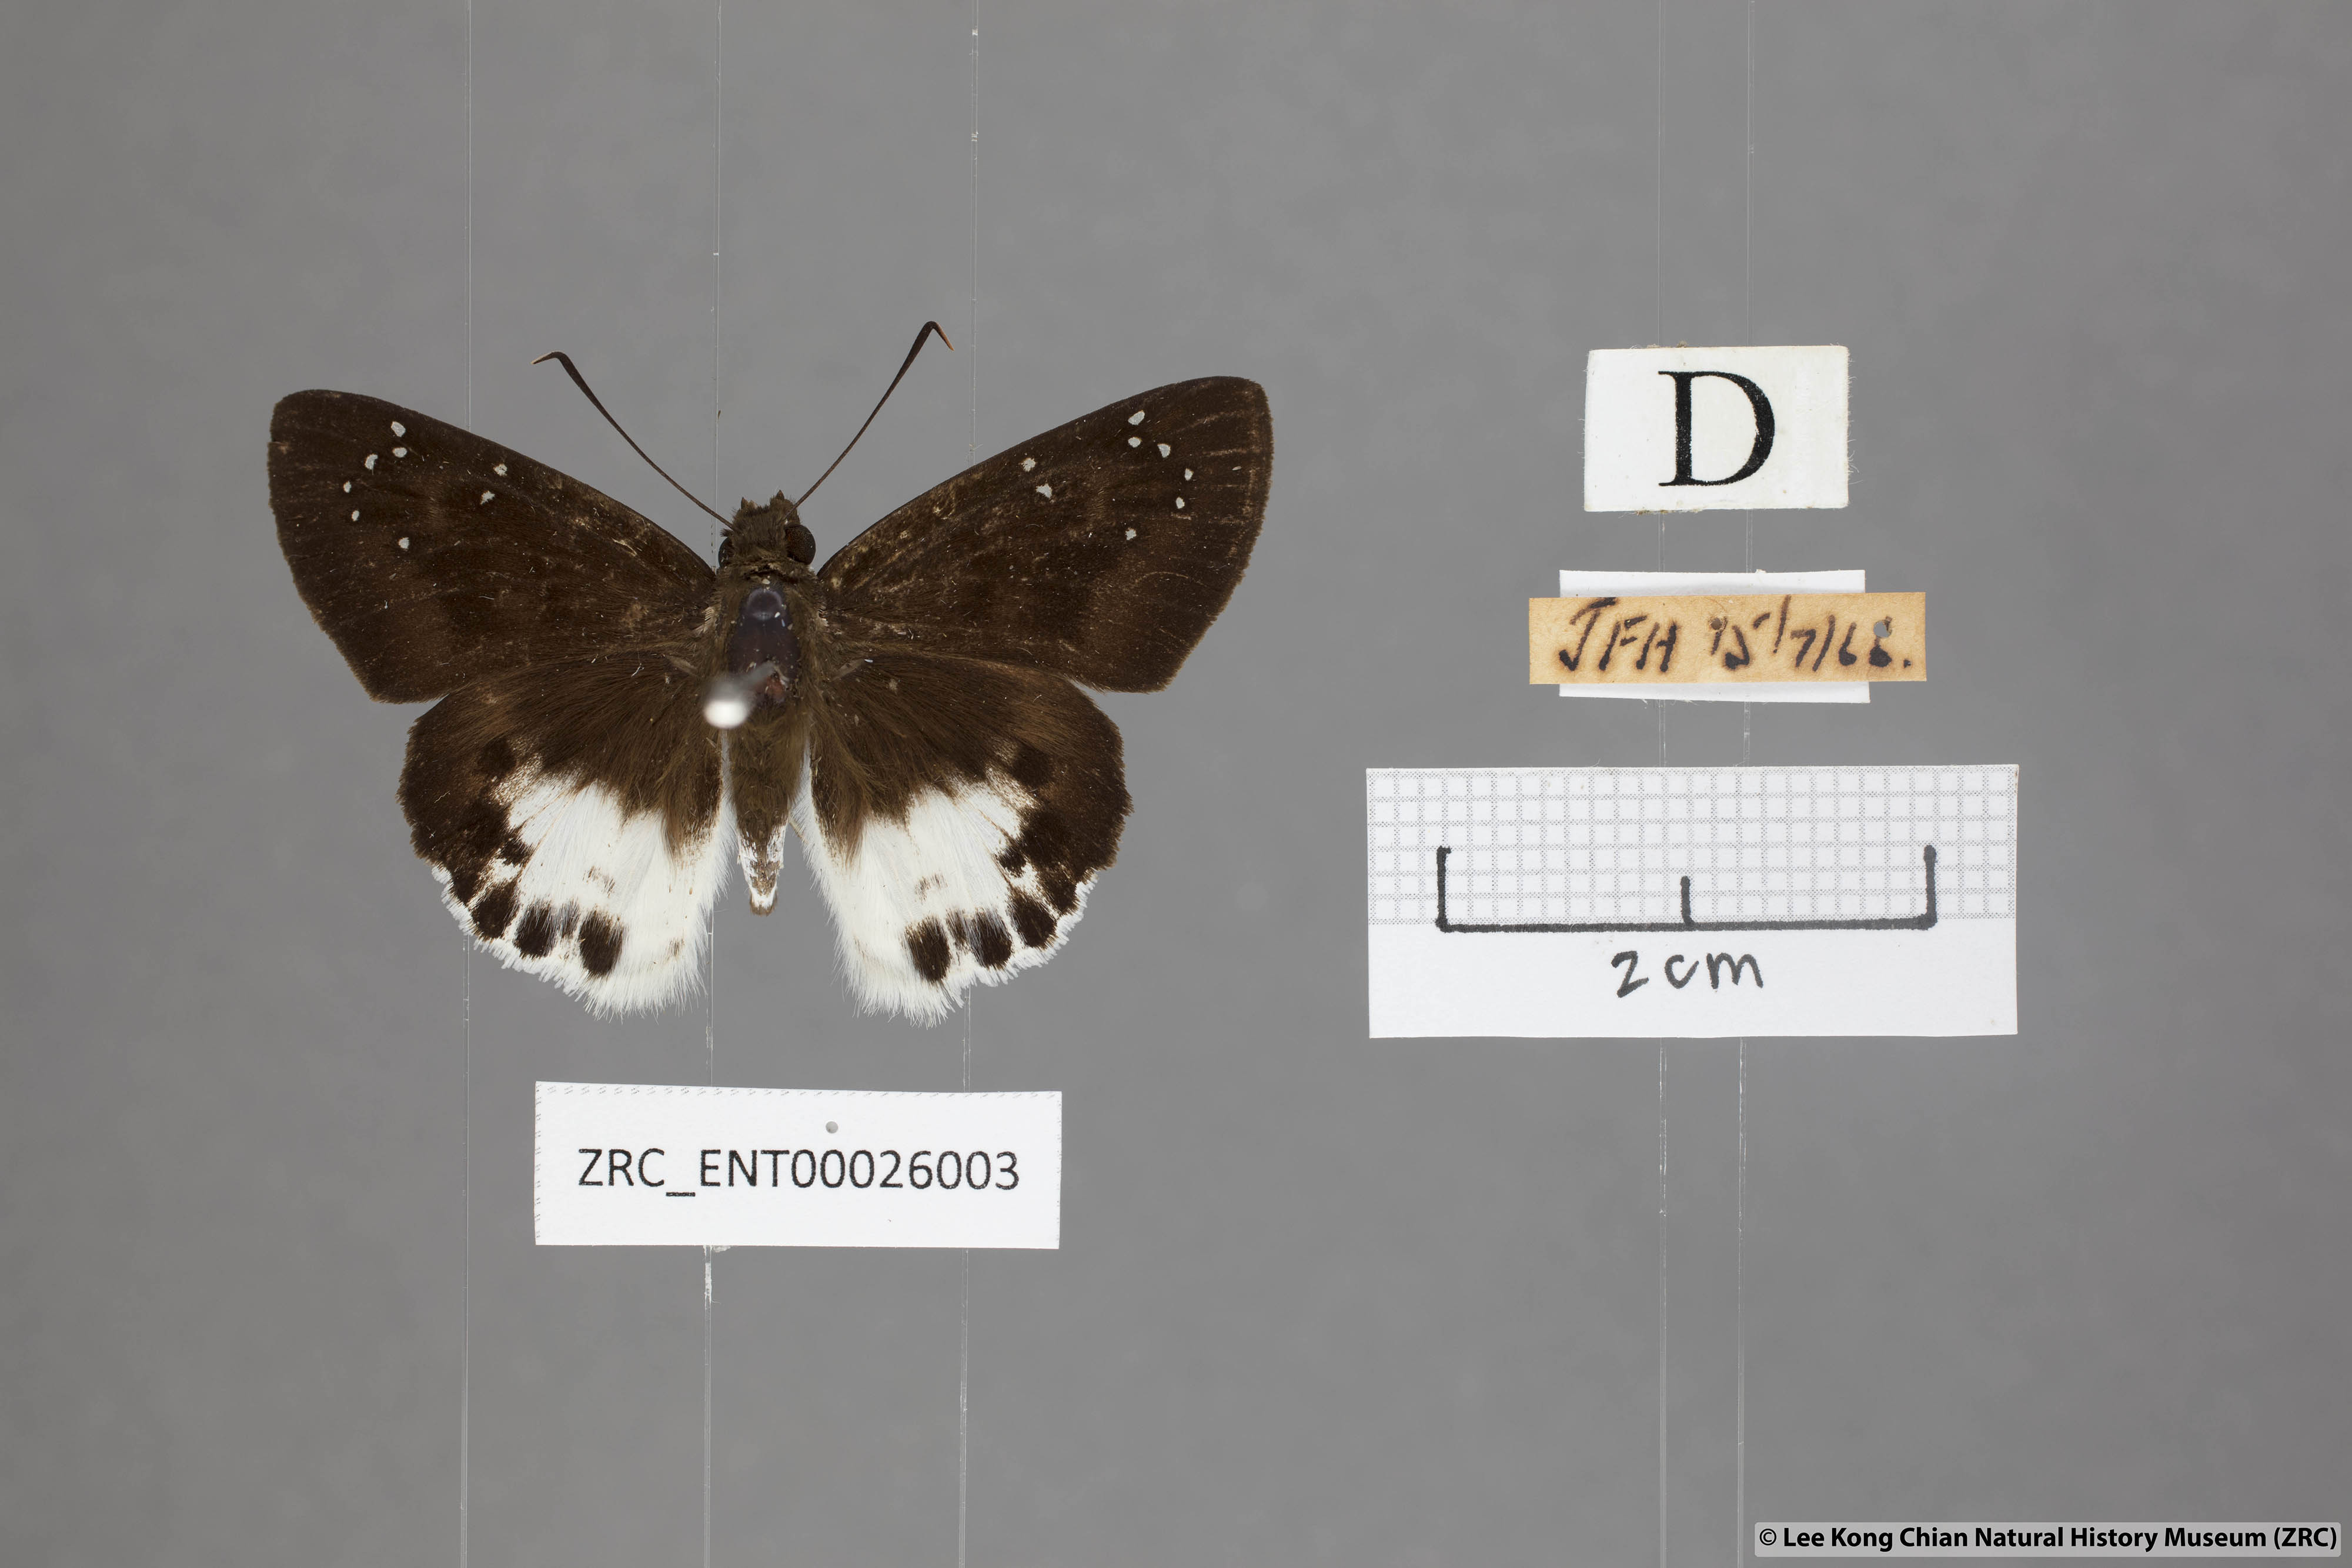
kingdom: Animalia
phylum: Arthropoda
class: Insecta
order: Lepidoptera
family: Hesperiidae
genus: Tagiades
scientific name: Tagiades menaka
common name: Dark-edged snow flat
